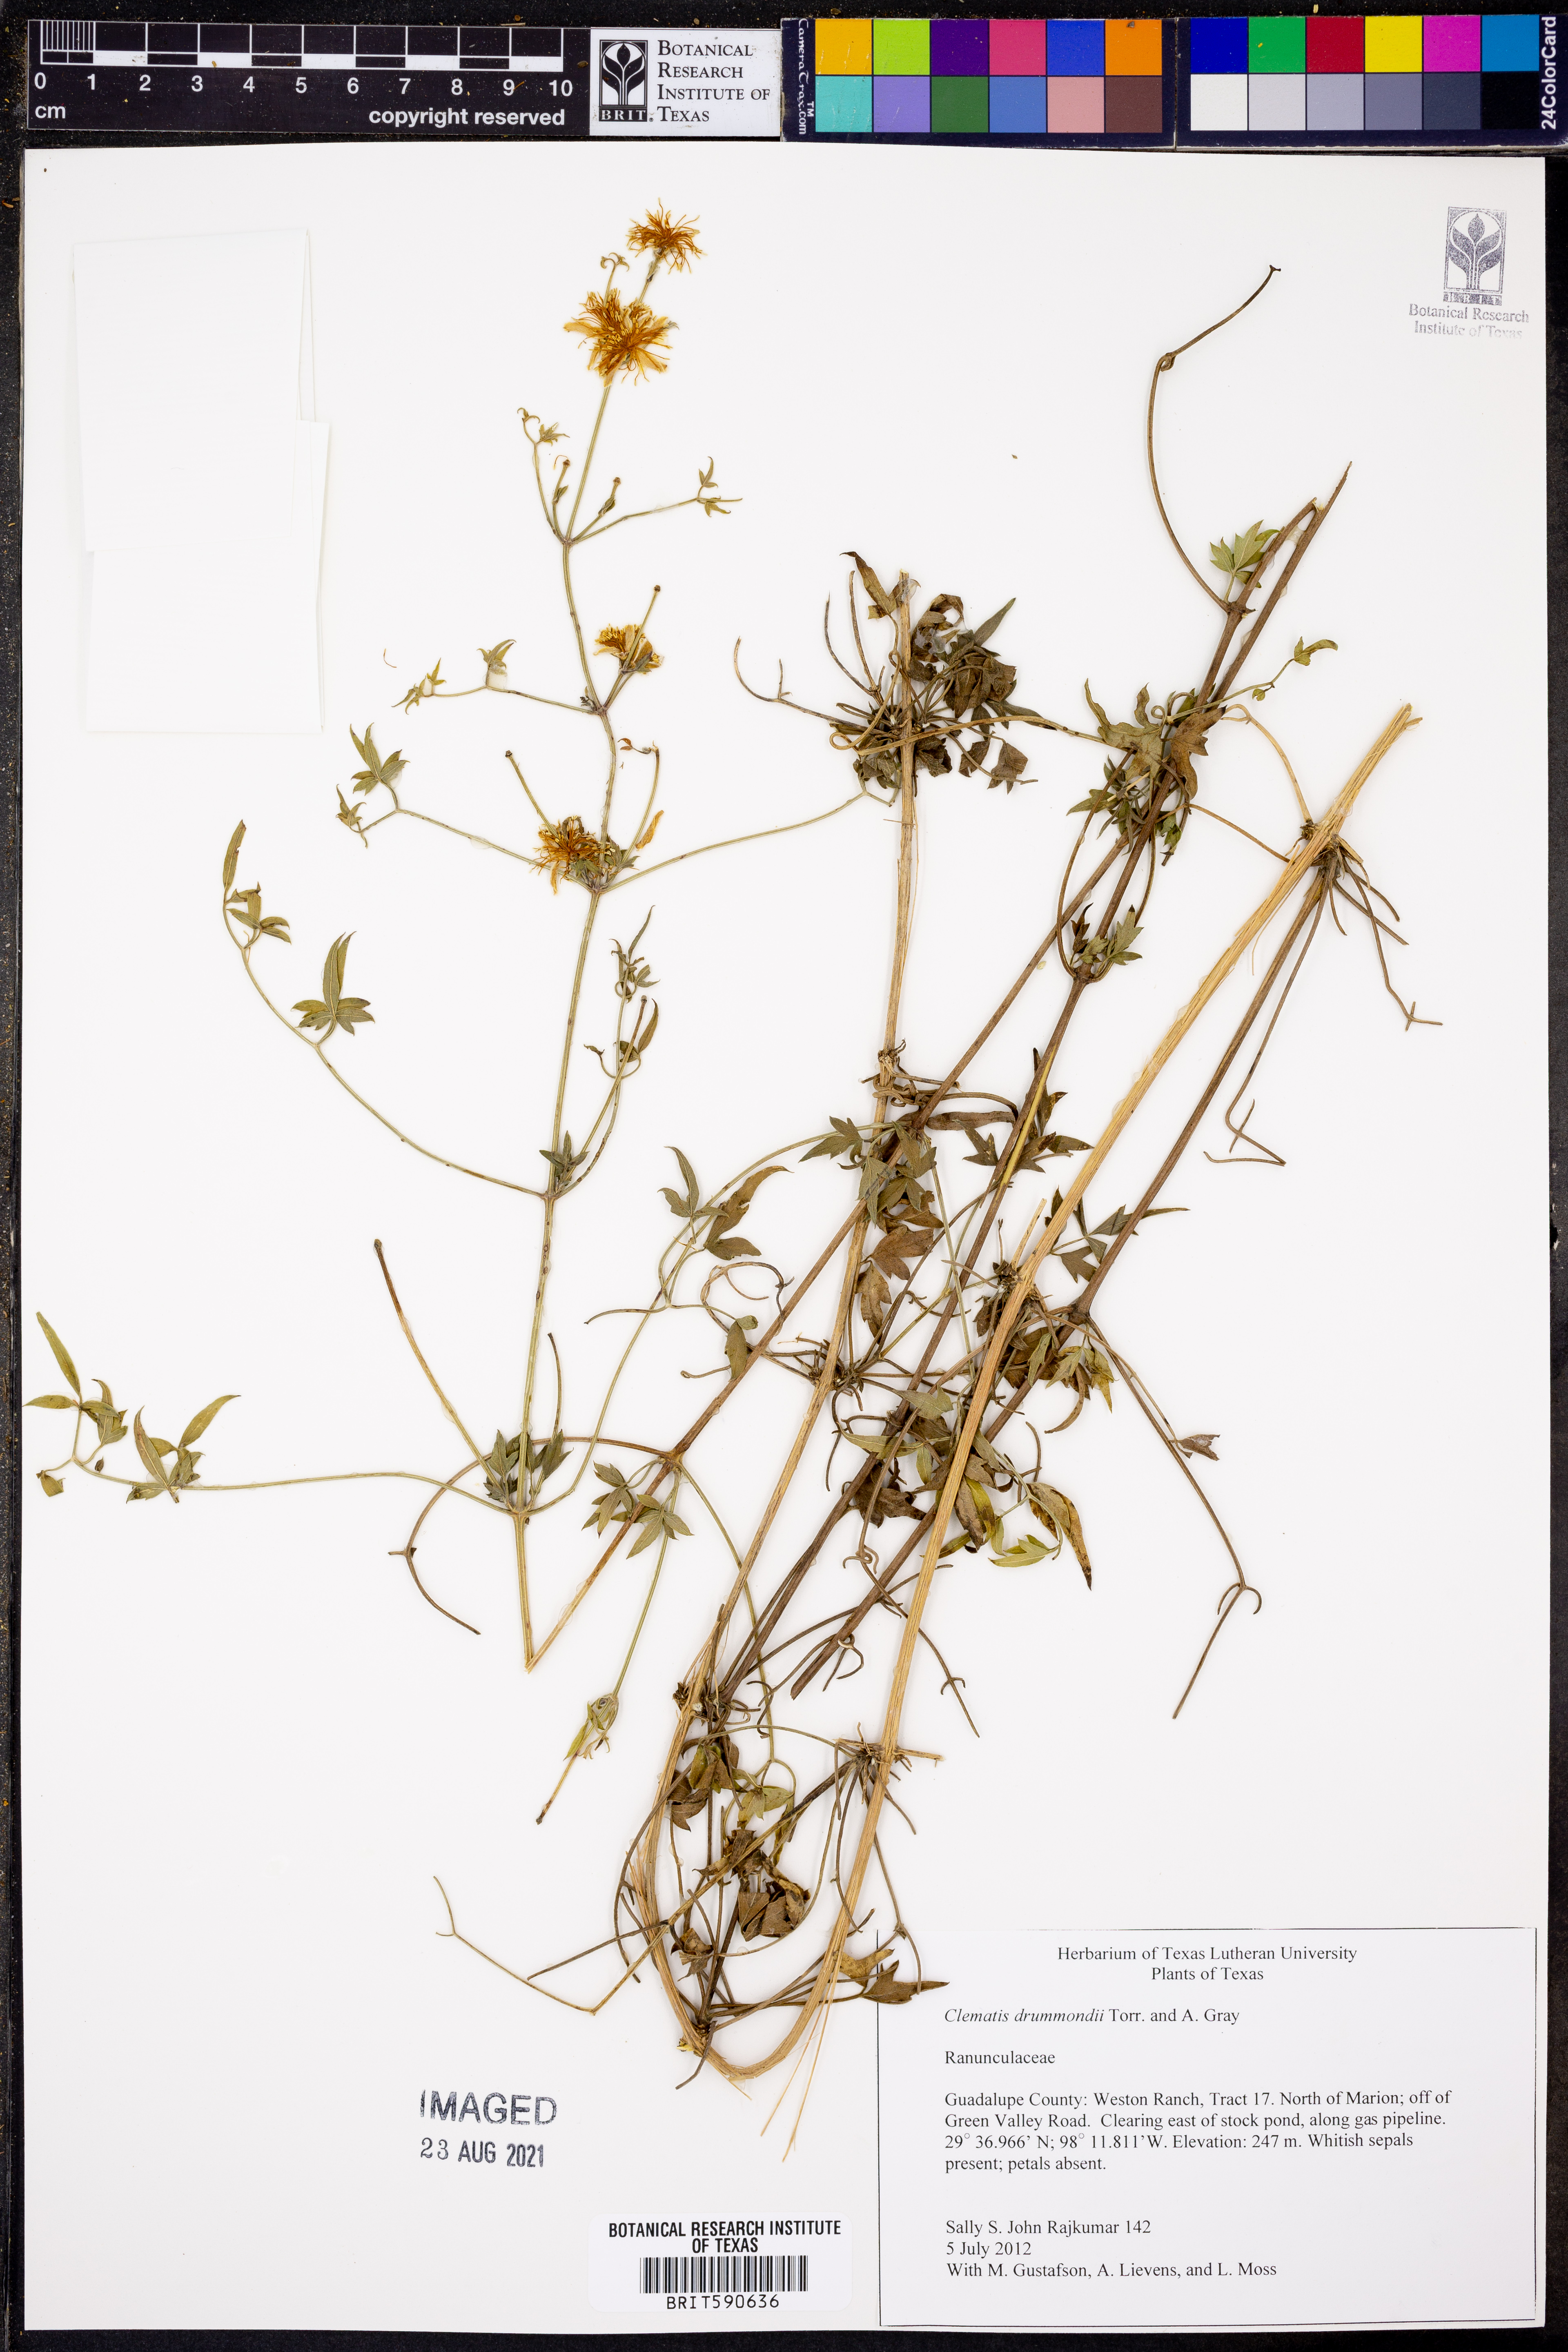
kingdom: Plantae
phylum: Tracheophyta
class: Magnoliopsida
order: Ranunculales
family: Ranunculaceae
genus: Clematis
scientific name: Clematis drummondii
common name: Texas virgin's bower
